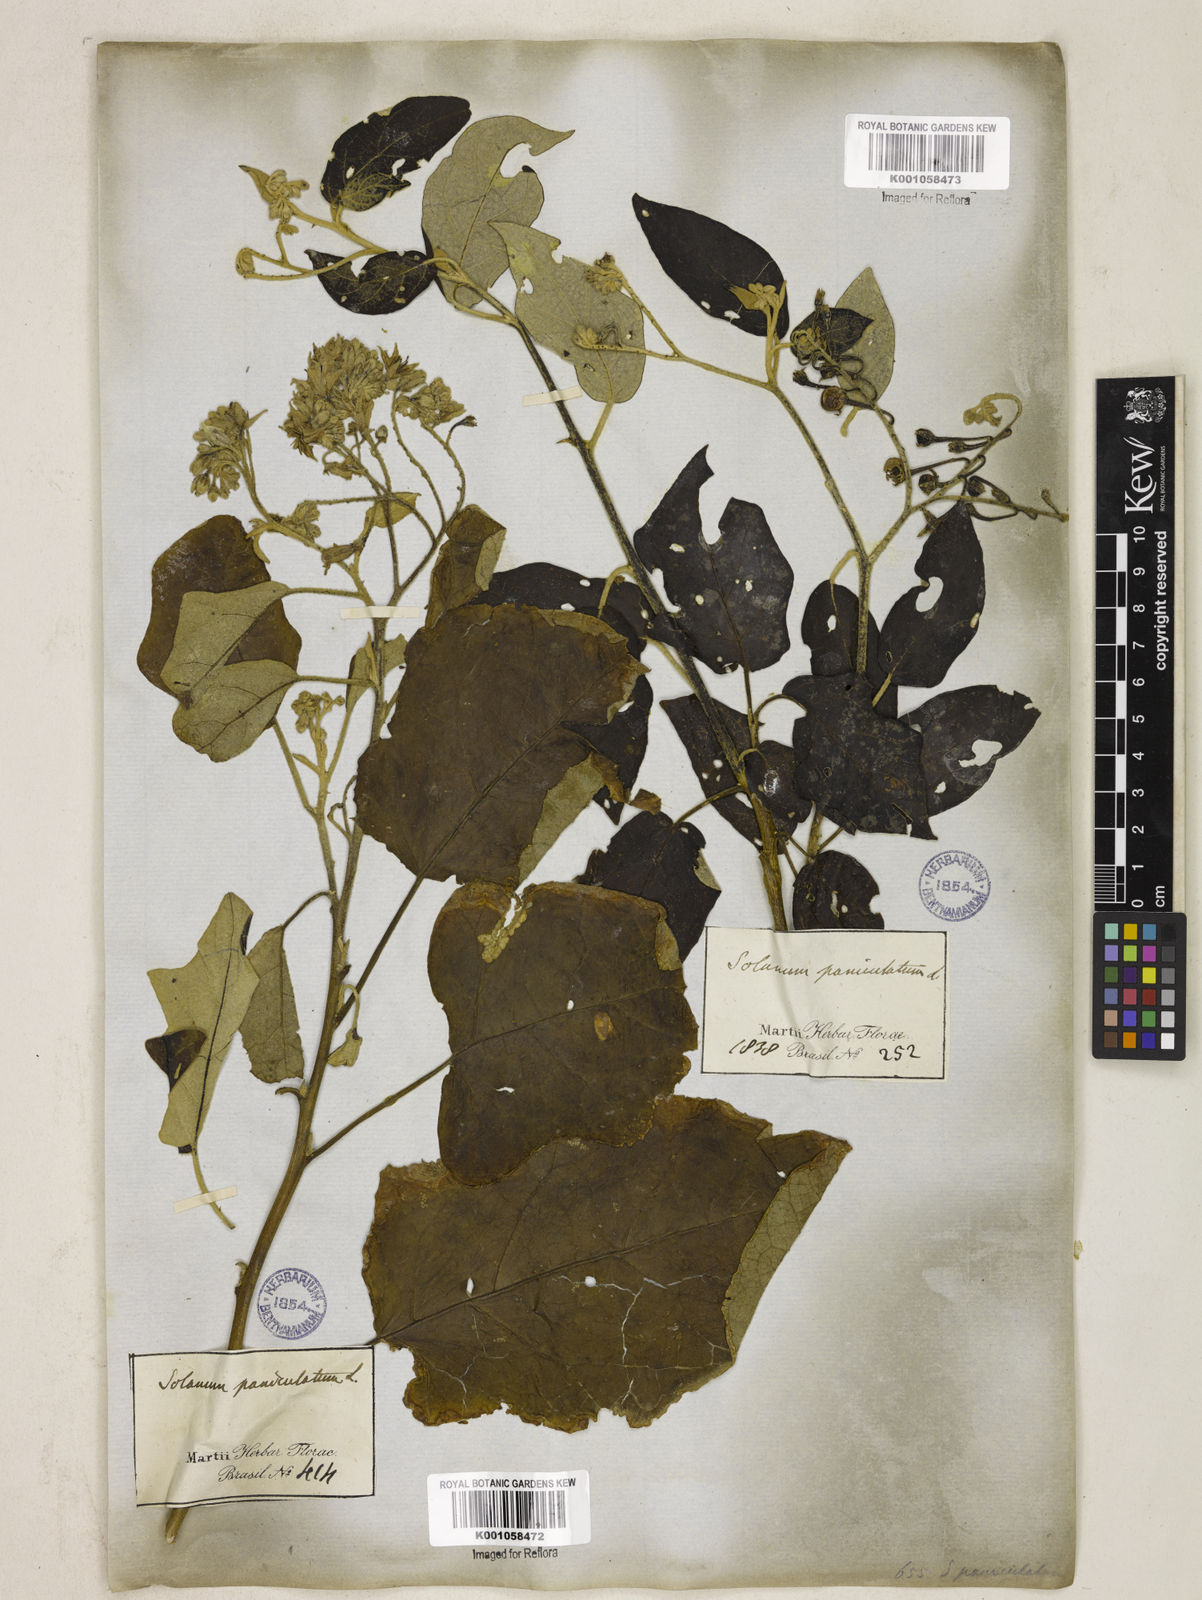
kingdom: Plantae
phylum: Tracheophyta
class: Magnoliopsida
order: Solanales
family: Solanaceae
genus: Solanum
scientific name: Solanum paniculatum
